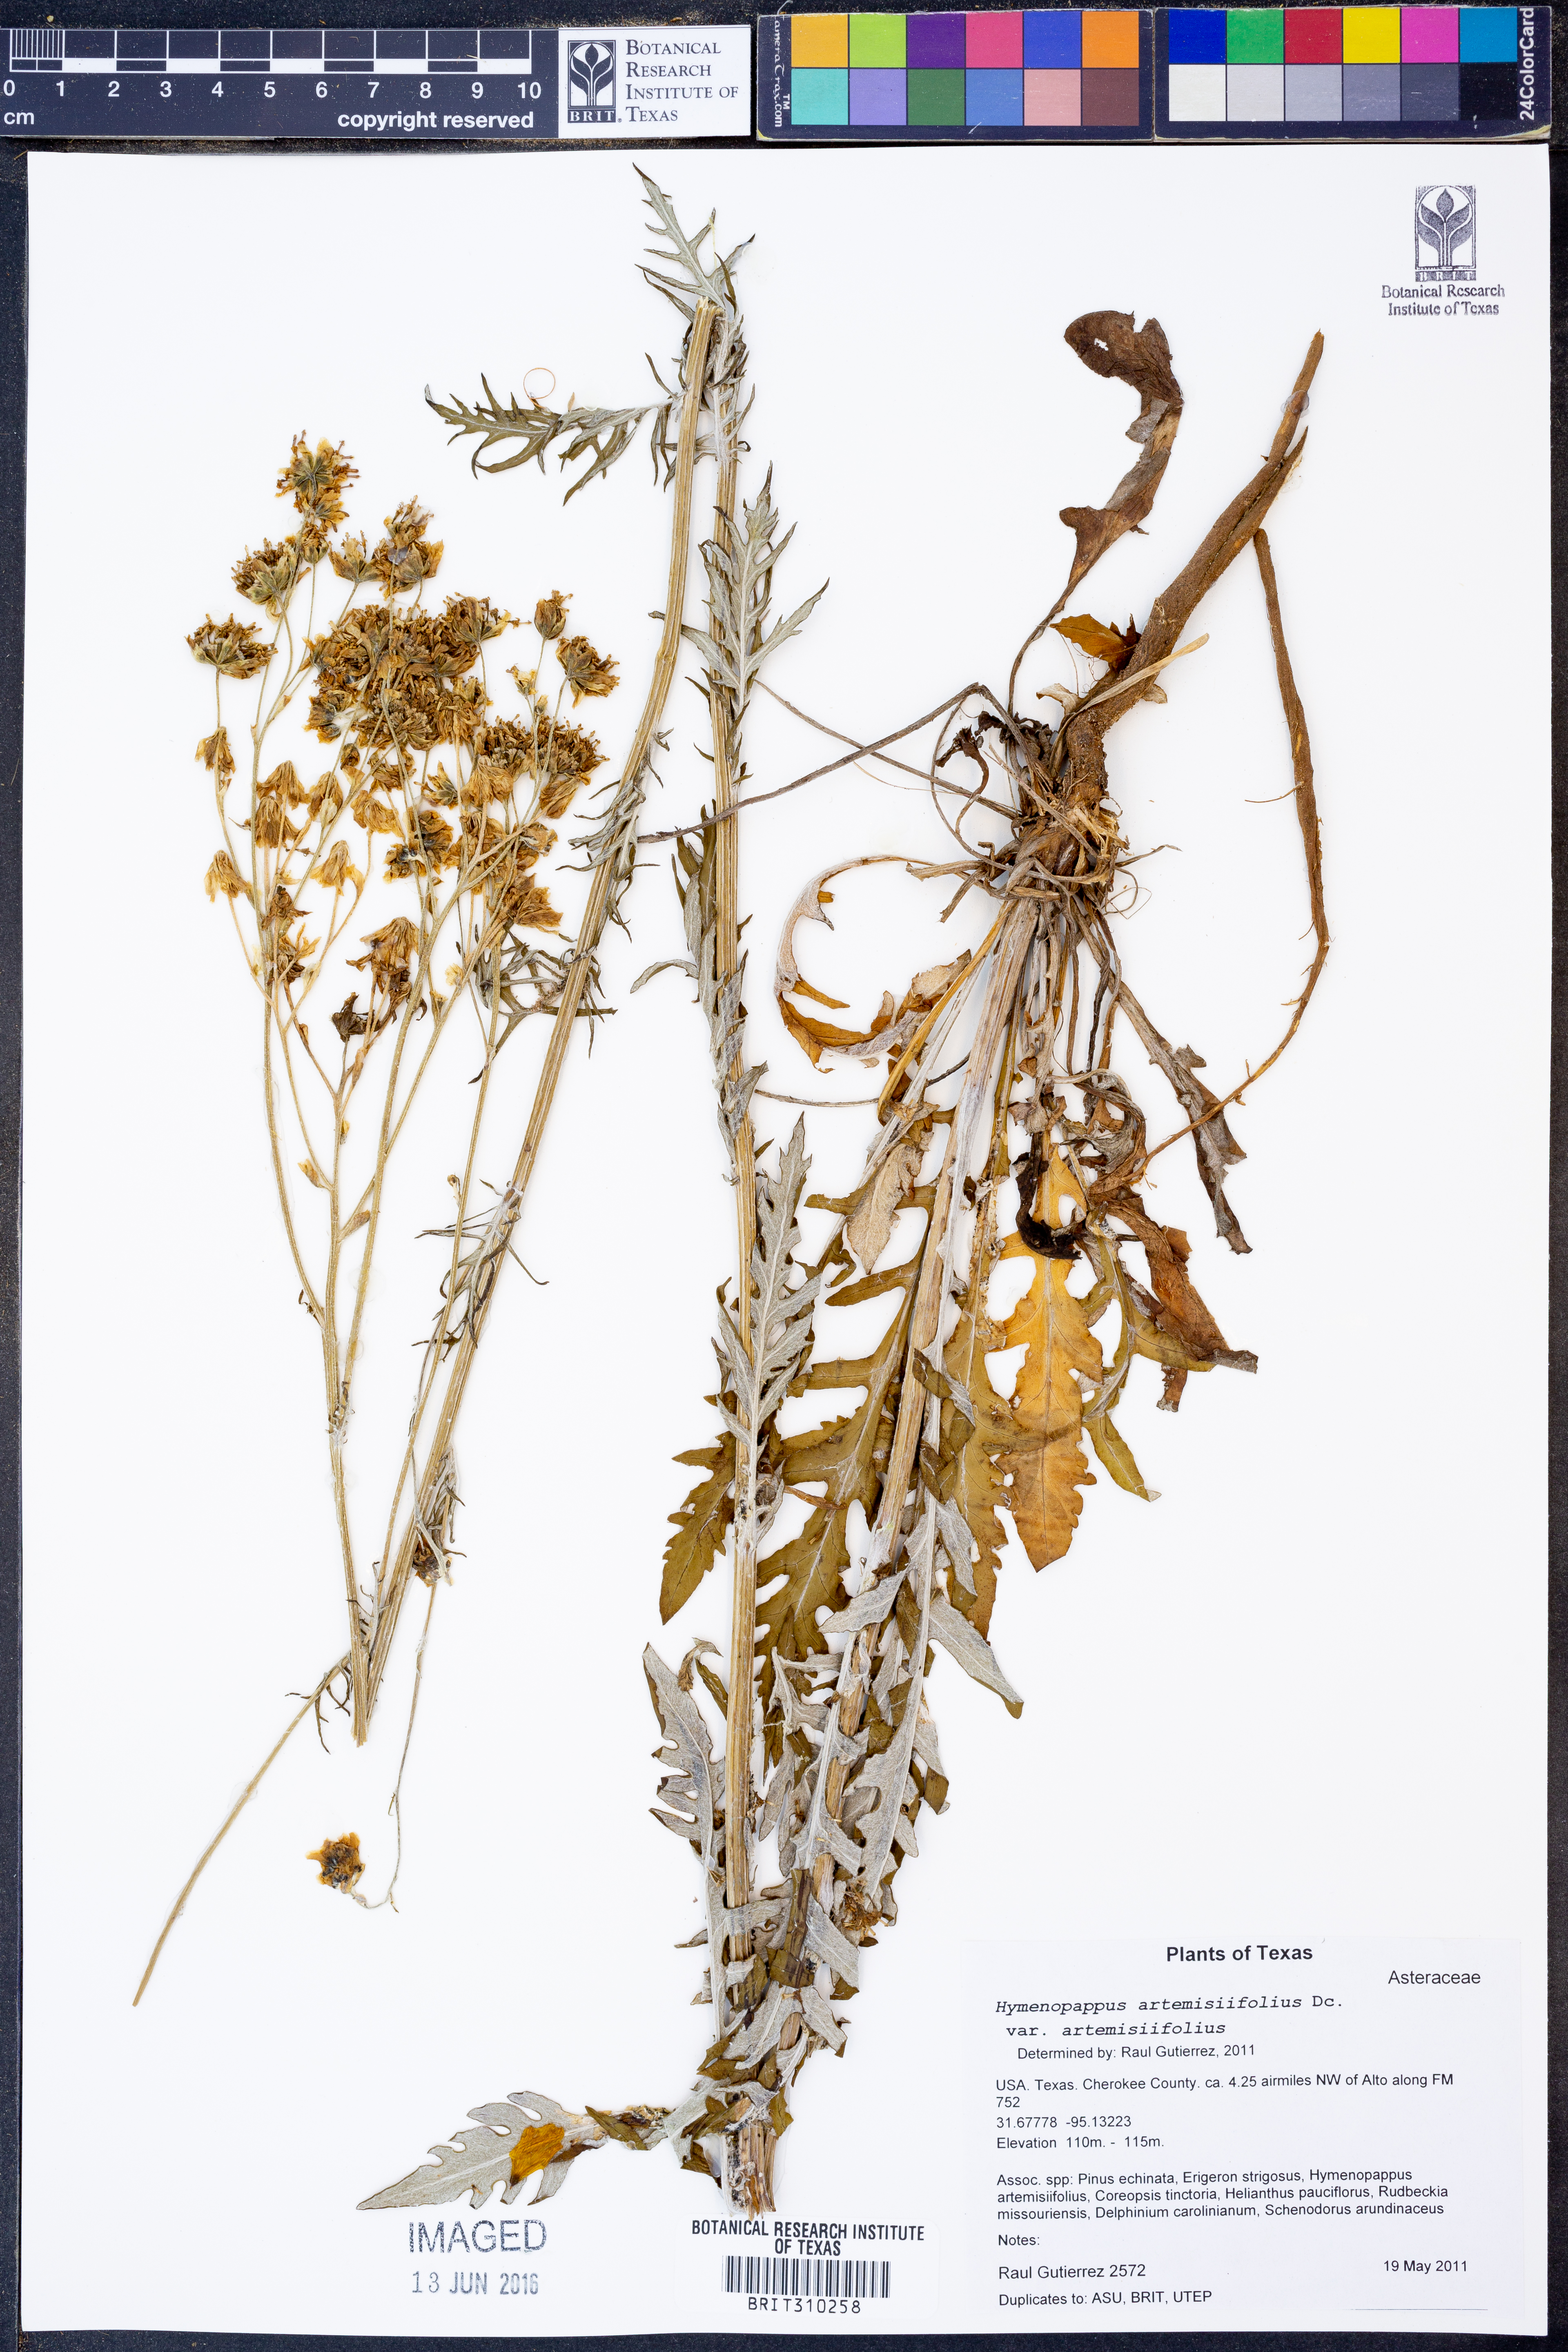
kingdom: Plantae
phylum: Tracheophyta
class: Magnoliopsida
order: Asterales
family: Asteraceae
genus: Hymenopappus
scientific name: Hymenopappus artemisiifolius
